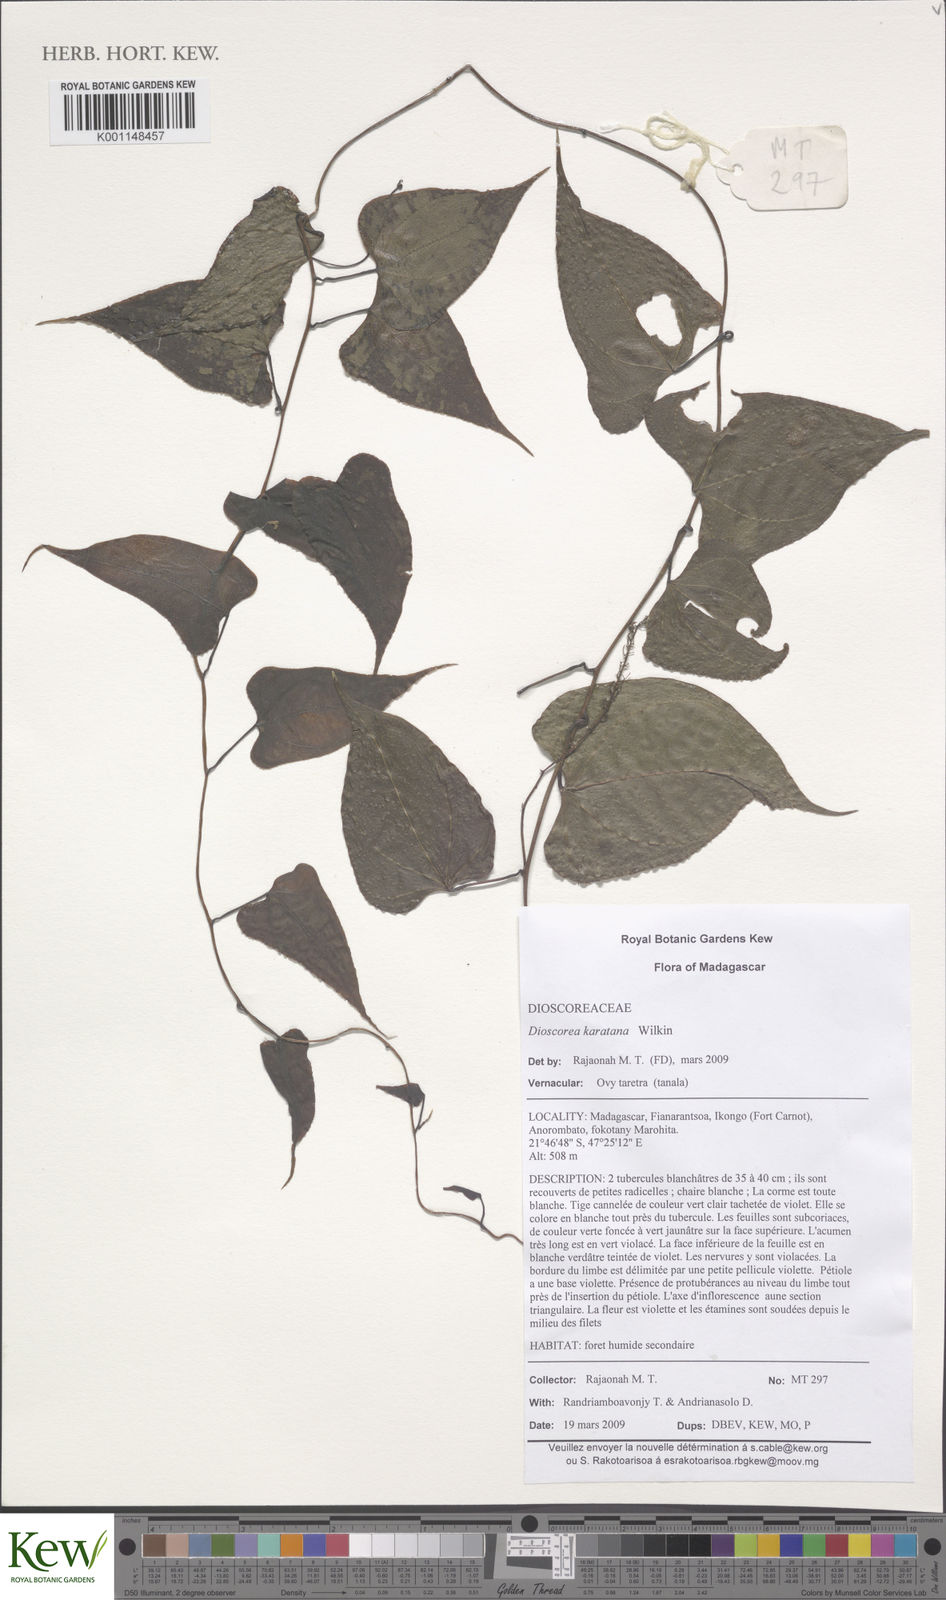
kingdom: Plantae
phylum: Tracheophyta
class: Liliopsida
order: Dioscoreales
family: Dioscoreaceae
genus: Dioscorea
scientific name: Dioscorea madecassa
